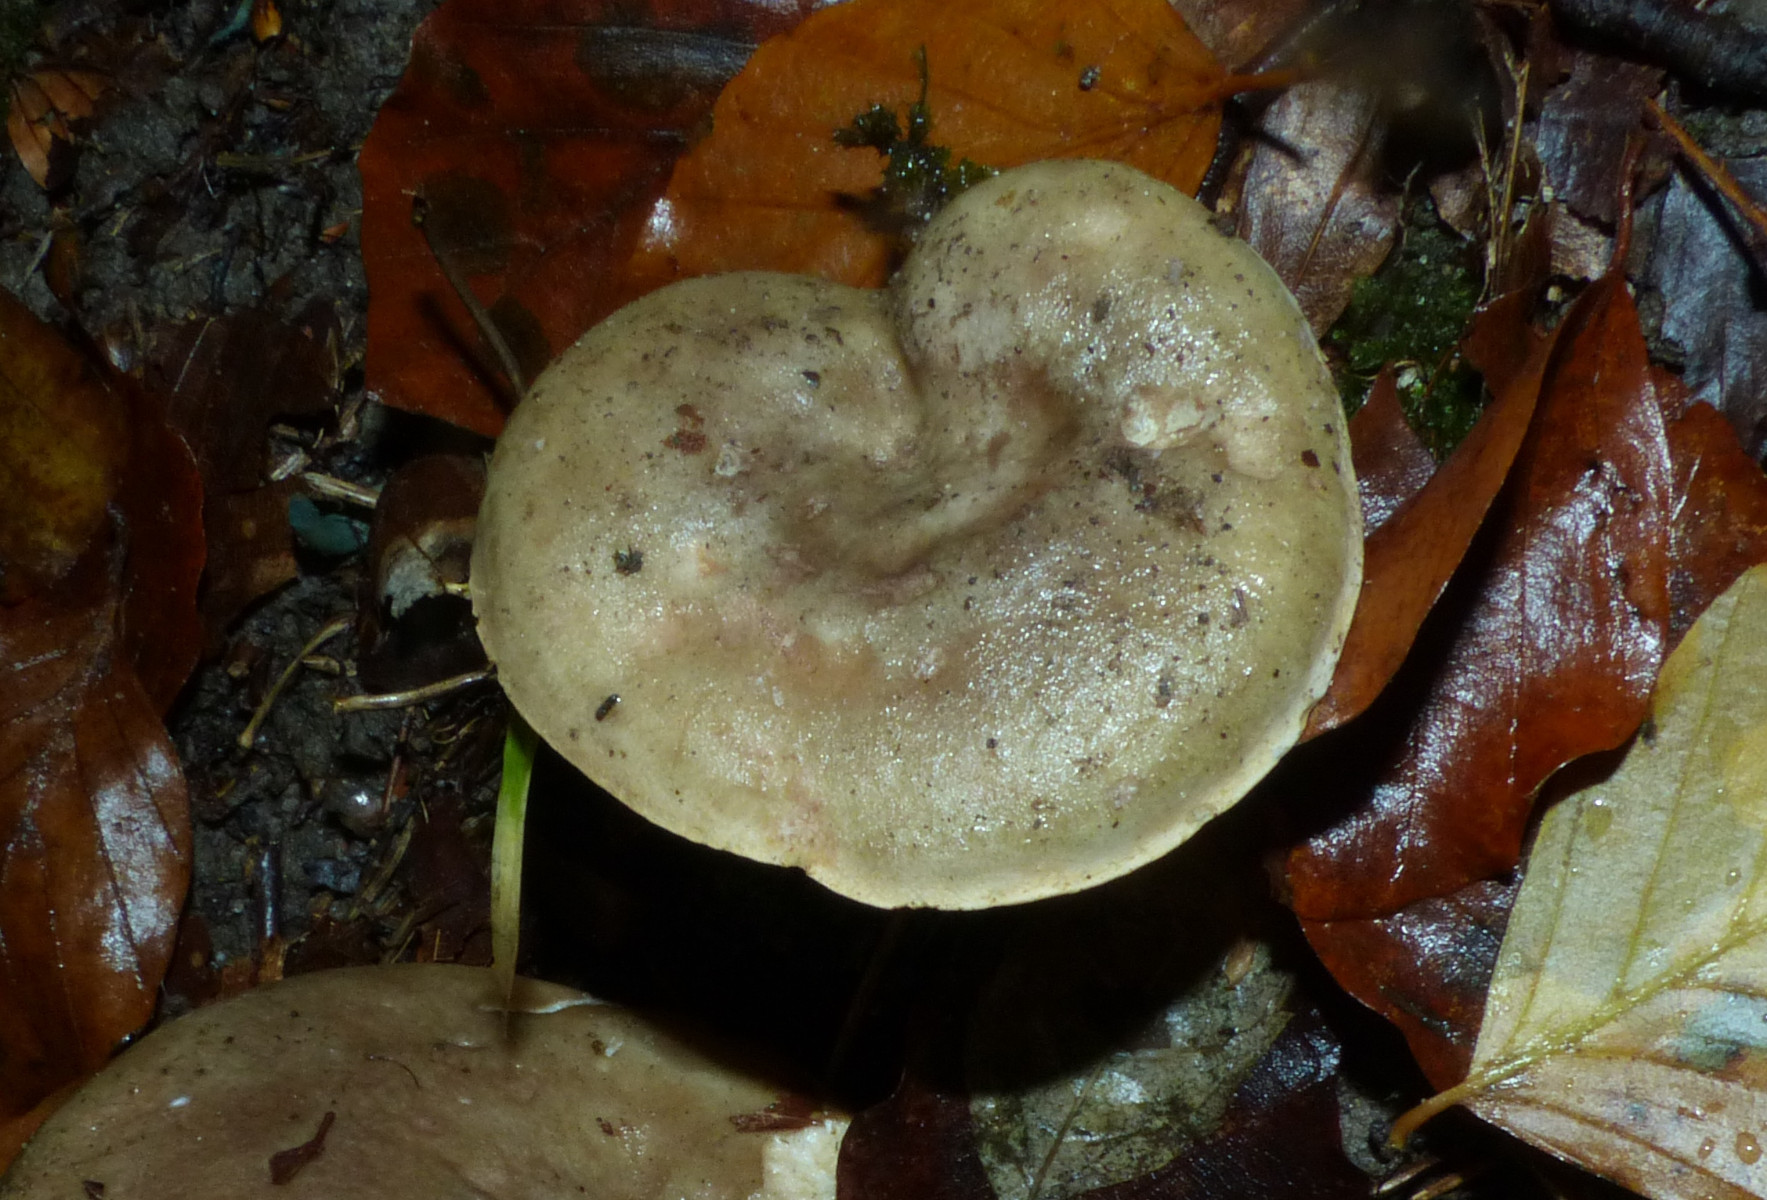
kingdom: Fungi
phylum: Basidiomycota
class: Agaricomycetes
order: Russulales
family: Russulaceae
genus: Lactarius
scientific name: Lactarius fluens
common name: lysrandet mælkehat
